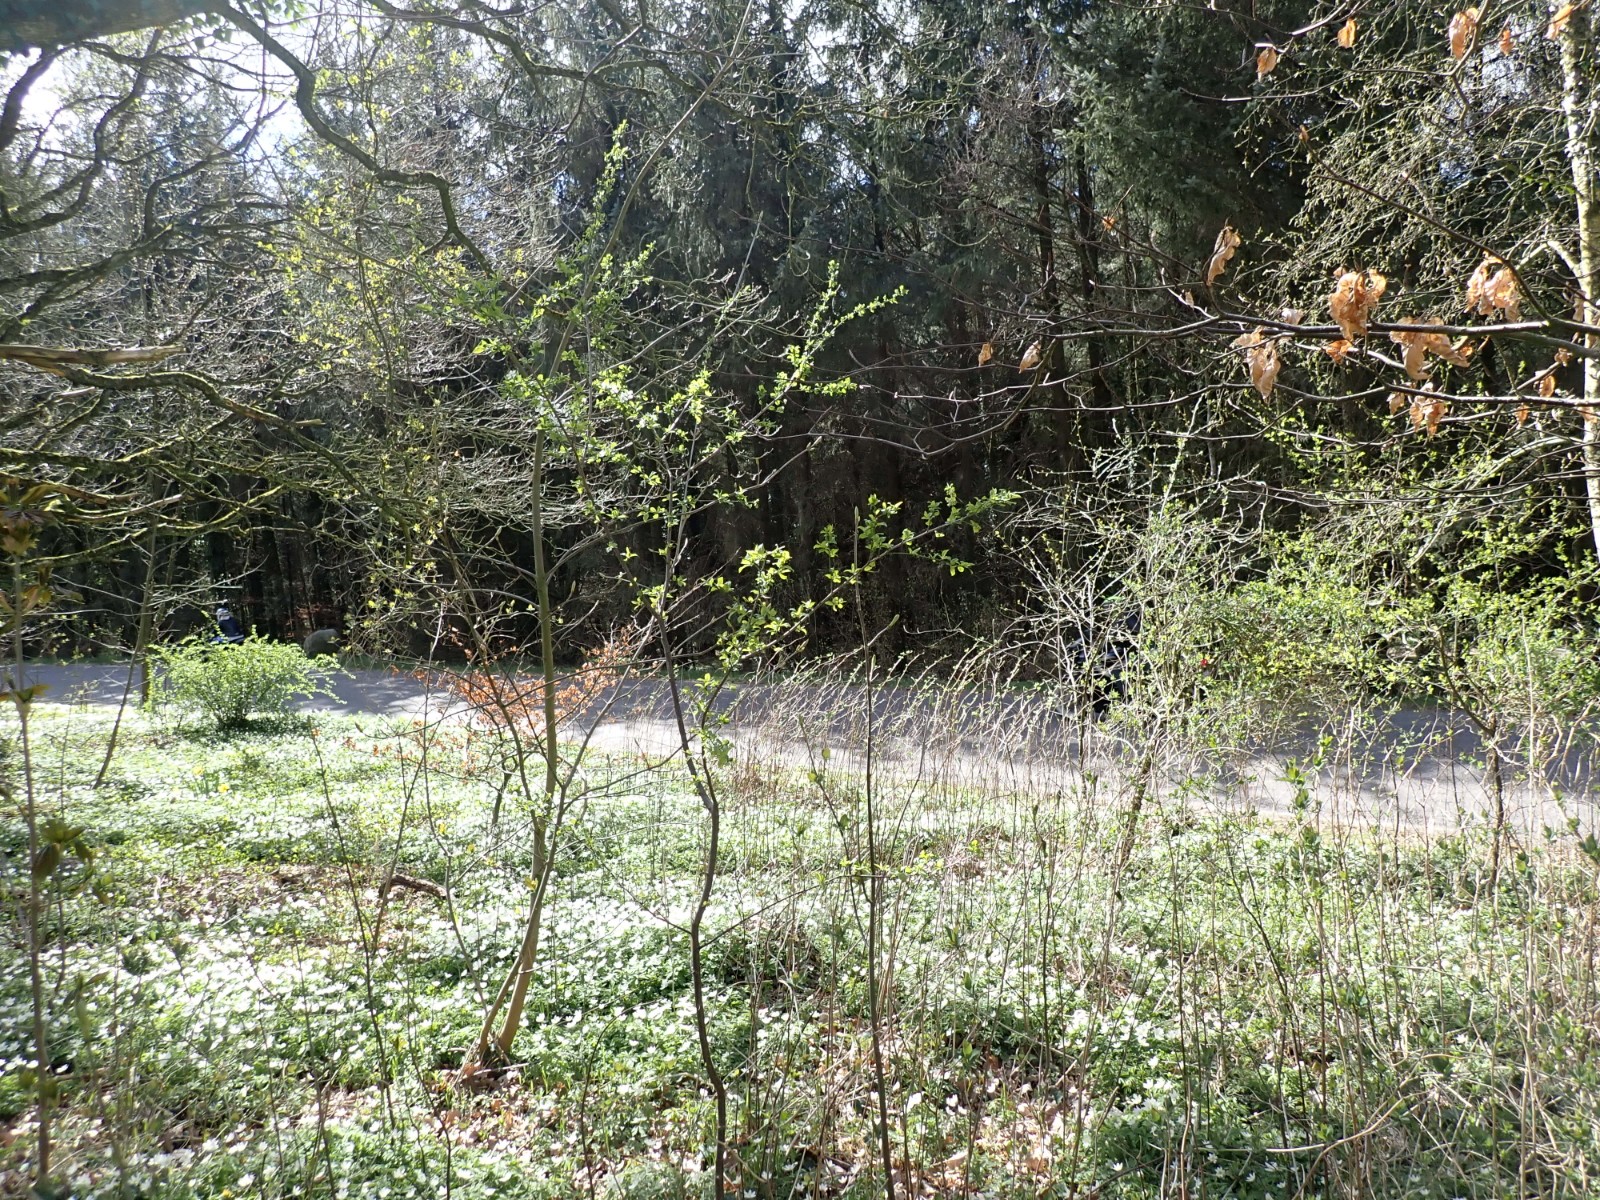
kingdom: Fungi
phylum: Ascomycota
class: Leotiomycetes
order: Helotiales
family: Sclerotiniaceae
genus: Dumontinia
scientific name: Dumontinia tuberosa
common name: anemone-knoldskive
